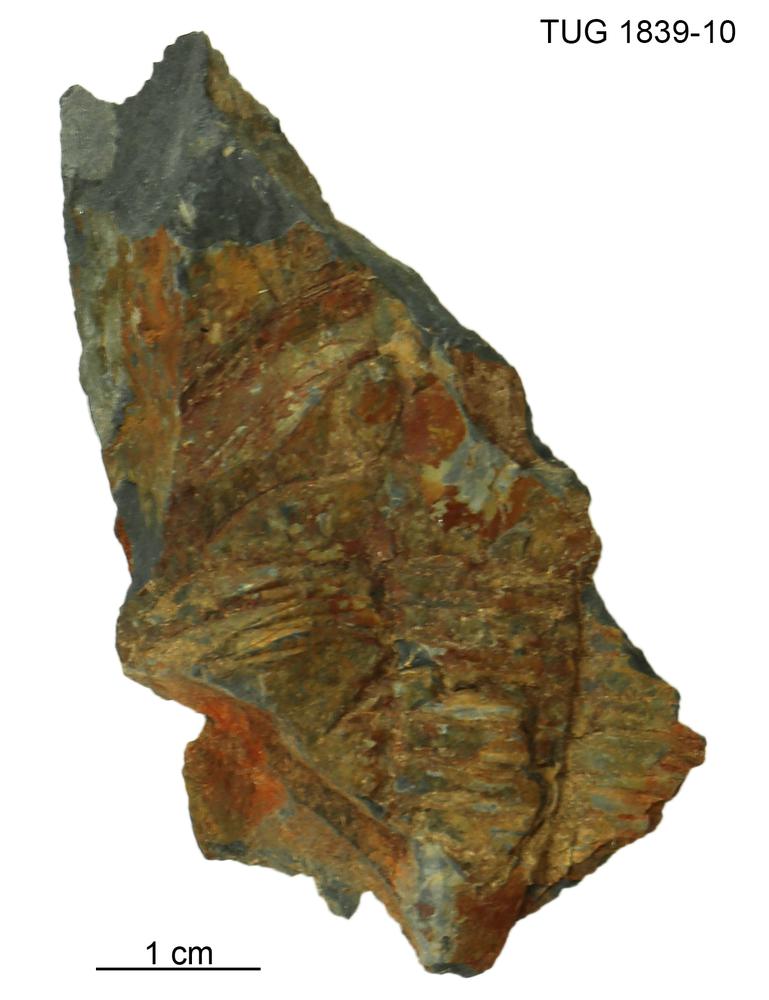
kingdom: Animalia
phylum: Arthropoda
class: Trilobita
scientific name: Trilobita
